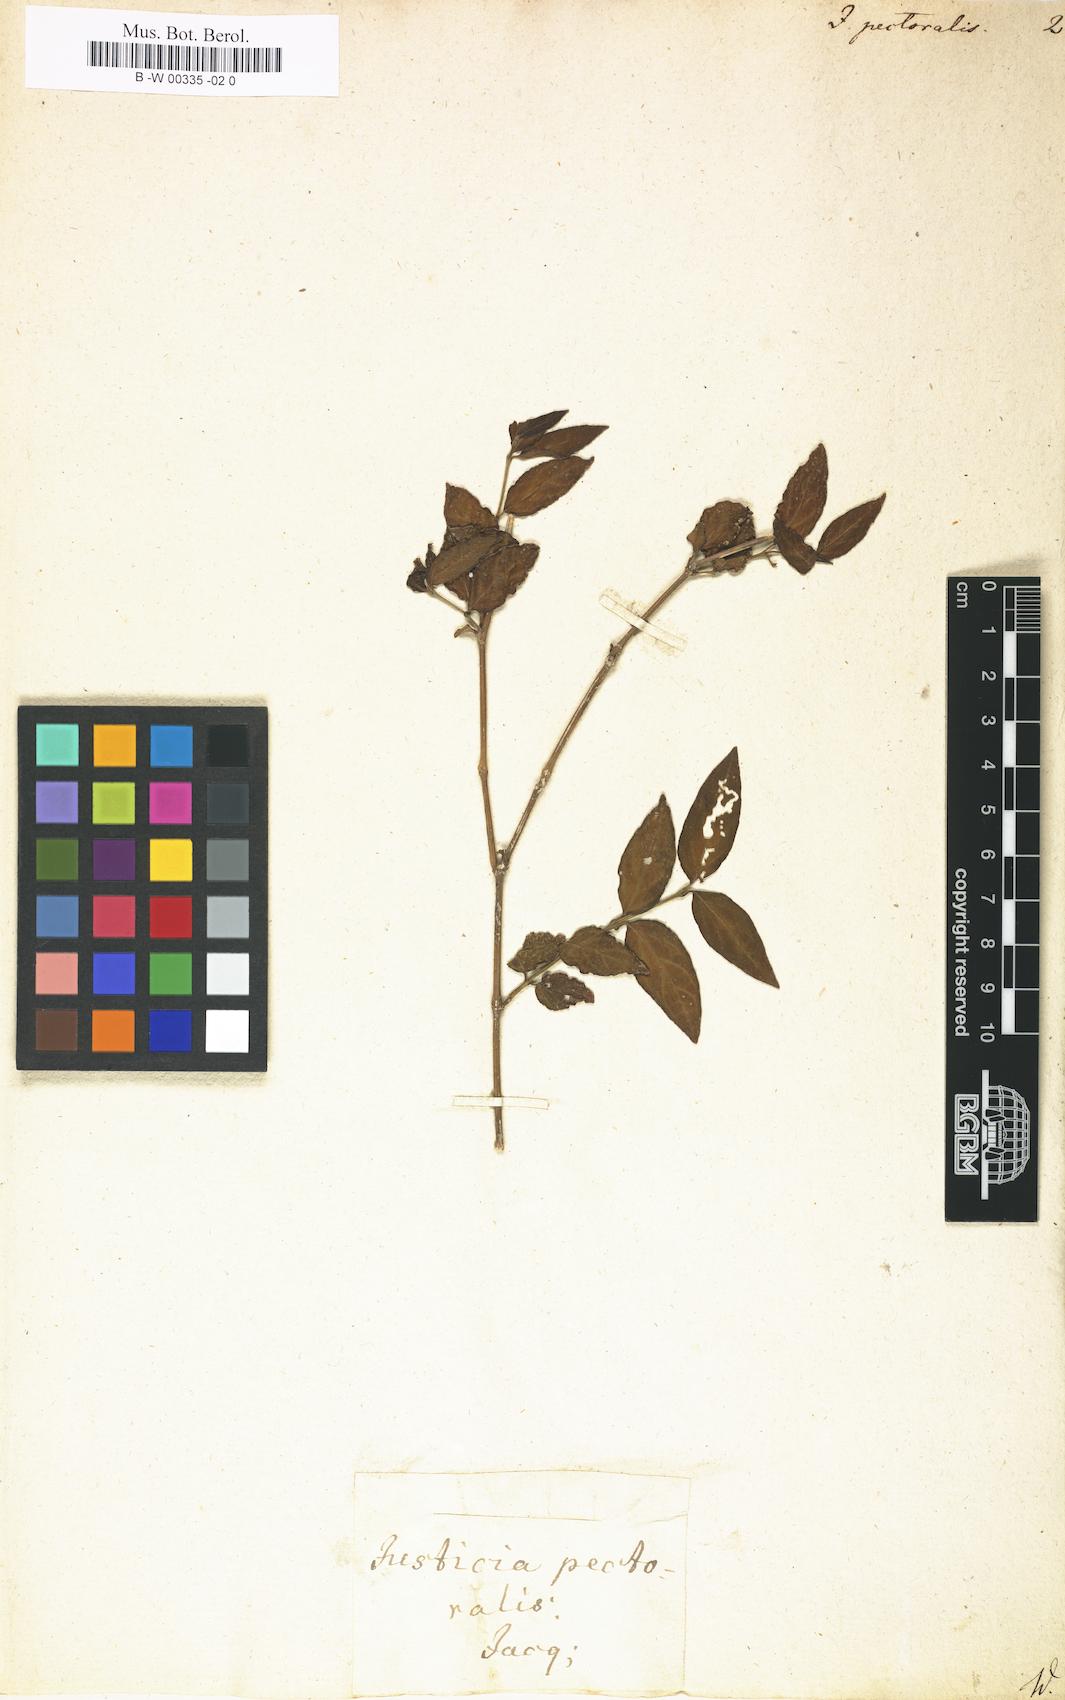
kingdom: Plantae
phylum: Tracheophyta
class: Magnoliopsida
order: Lamiales
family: Acanthaceae
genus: Dianthera
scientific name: Dianthera pectoralis
